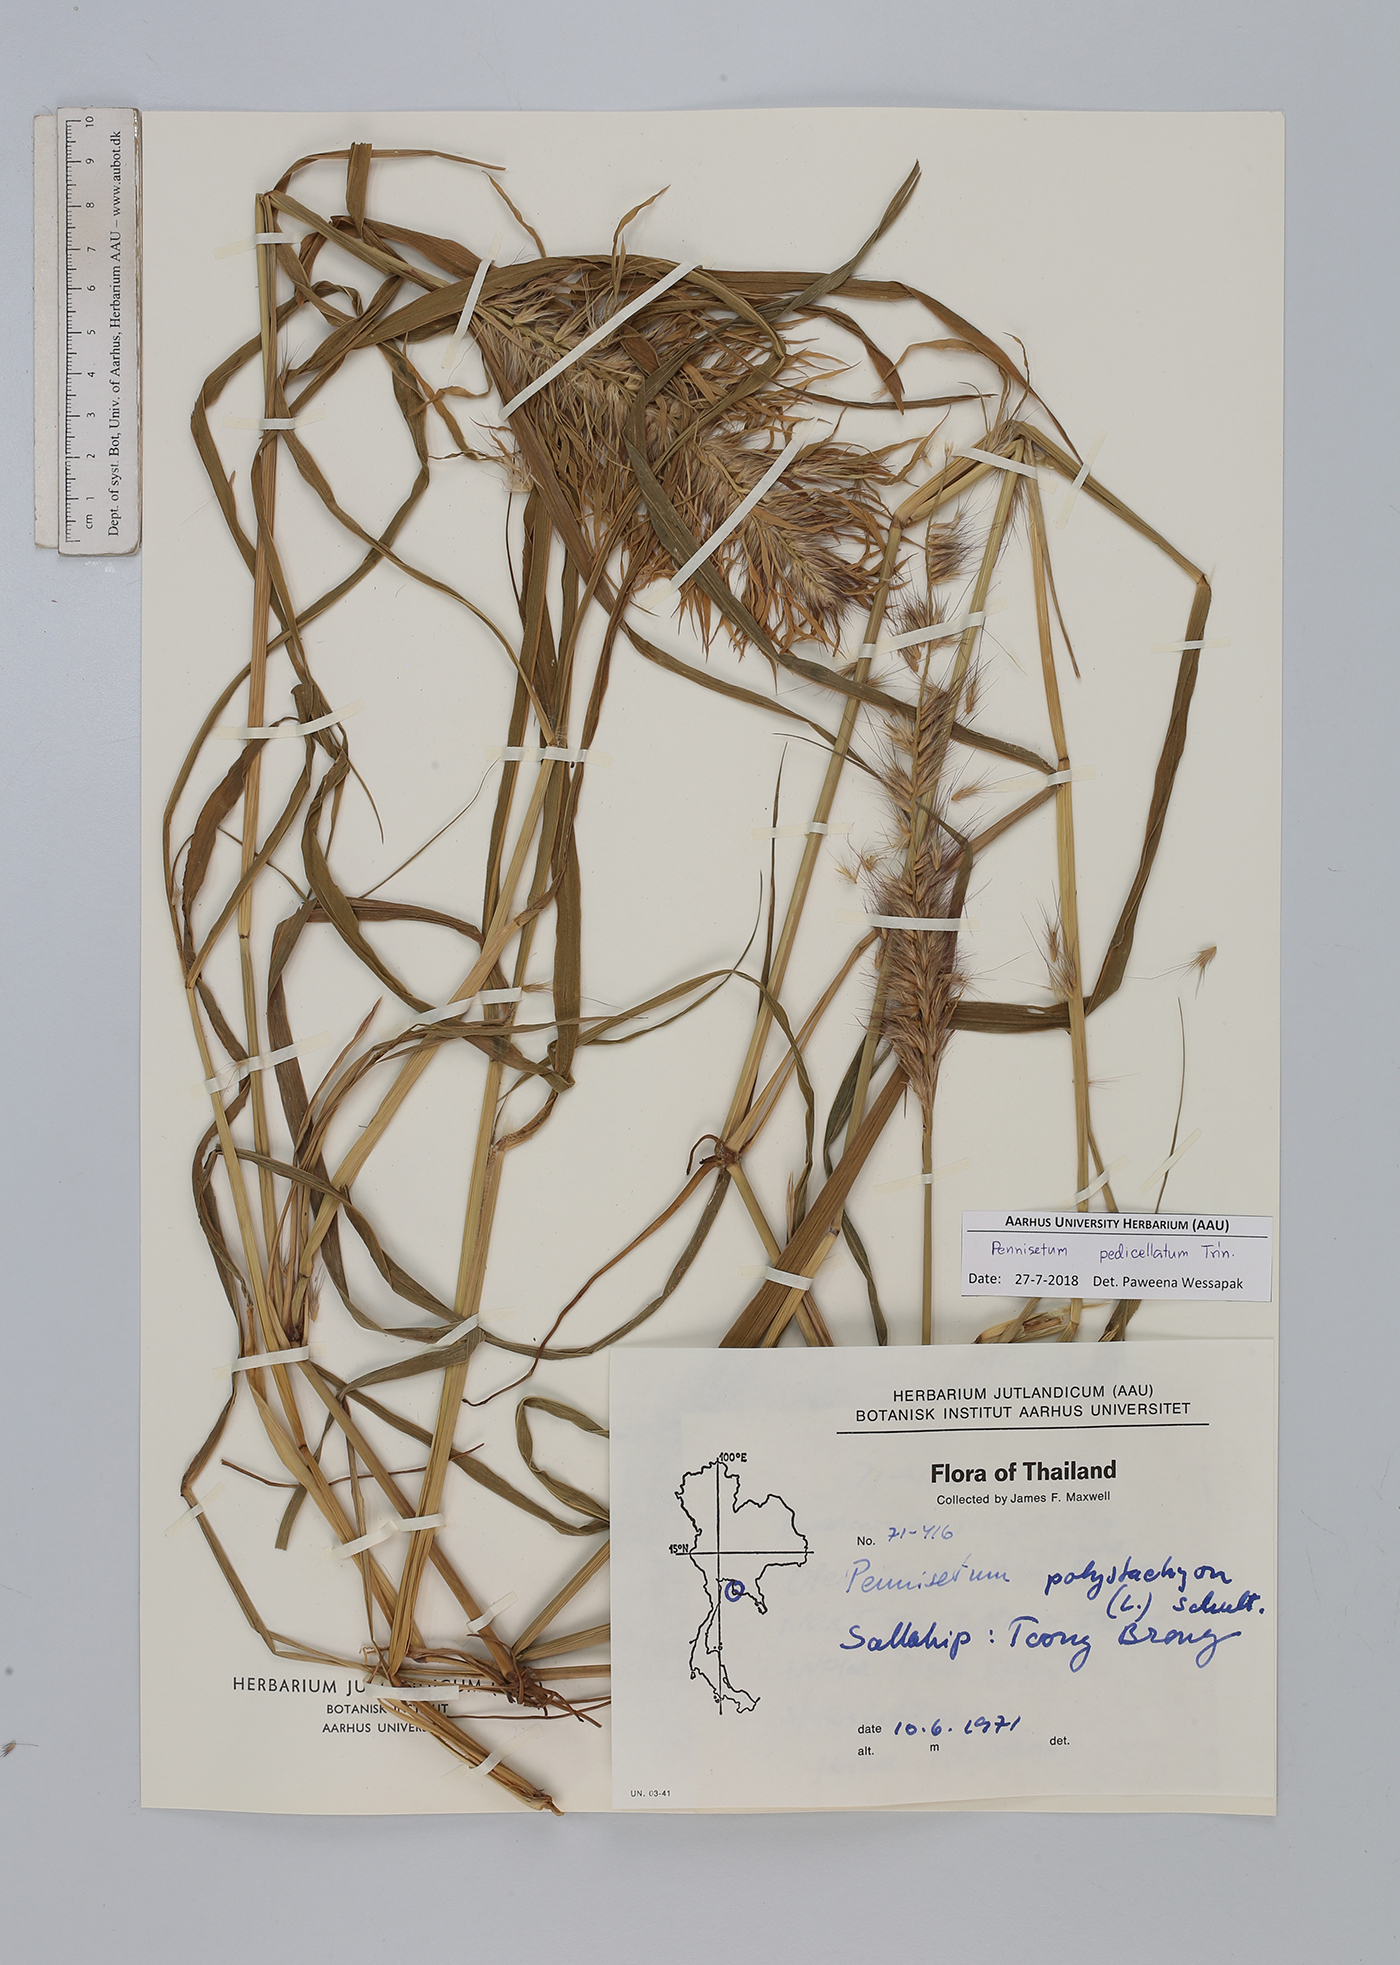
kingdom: Plantae
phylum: Tracheophyta
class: Liliopsida
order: Poales
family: Poaceae
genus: Cenchrus
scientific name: Cenchrus pedicellatus
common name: Hairy fountain grass
